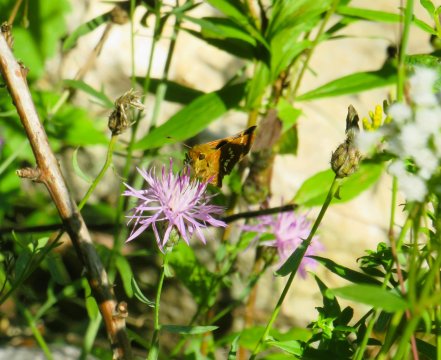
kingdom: Animalia
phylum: Arthropoda
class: Insecta
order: Lepidoptera
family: Hesperiidae
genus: Hesperia
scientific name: Hesperia leonardus
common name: Leonard's Skipper
